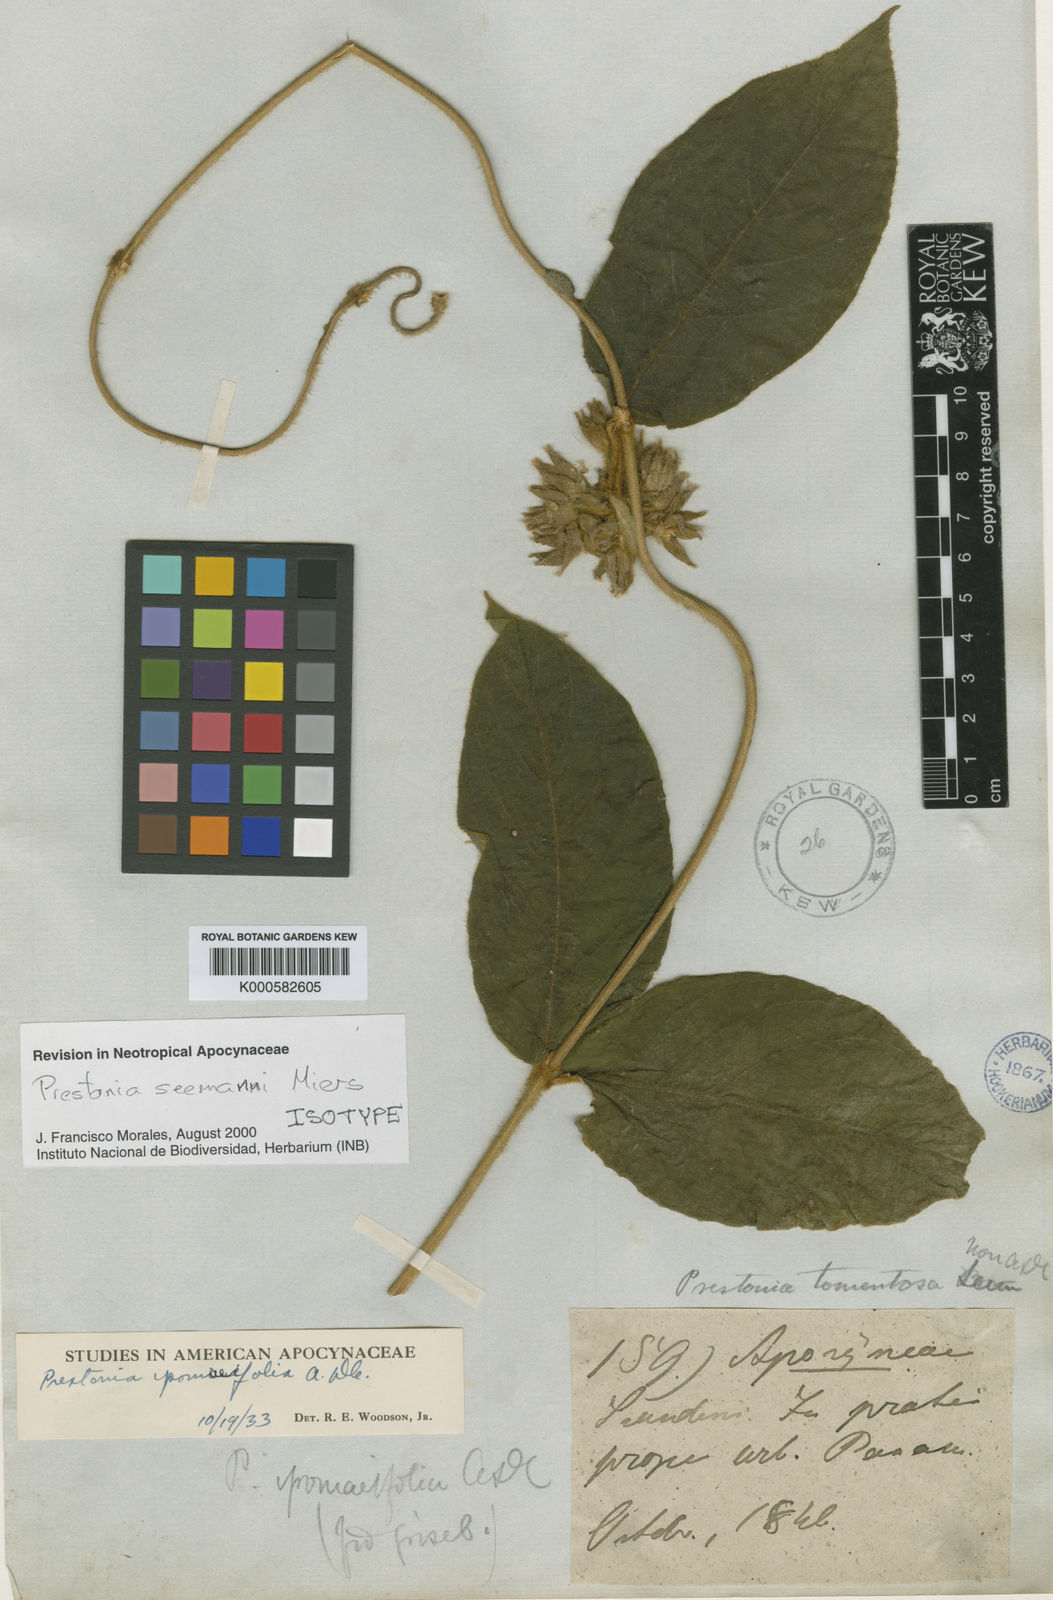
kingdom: Plantae
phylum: Tracheophyta
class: Magnoliopsida
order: Gentianales
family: Apocynaceae
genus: Prestonia
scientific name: Prestonia ipomaeifolia
